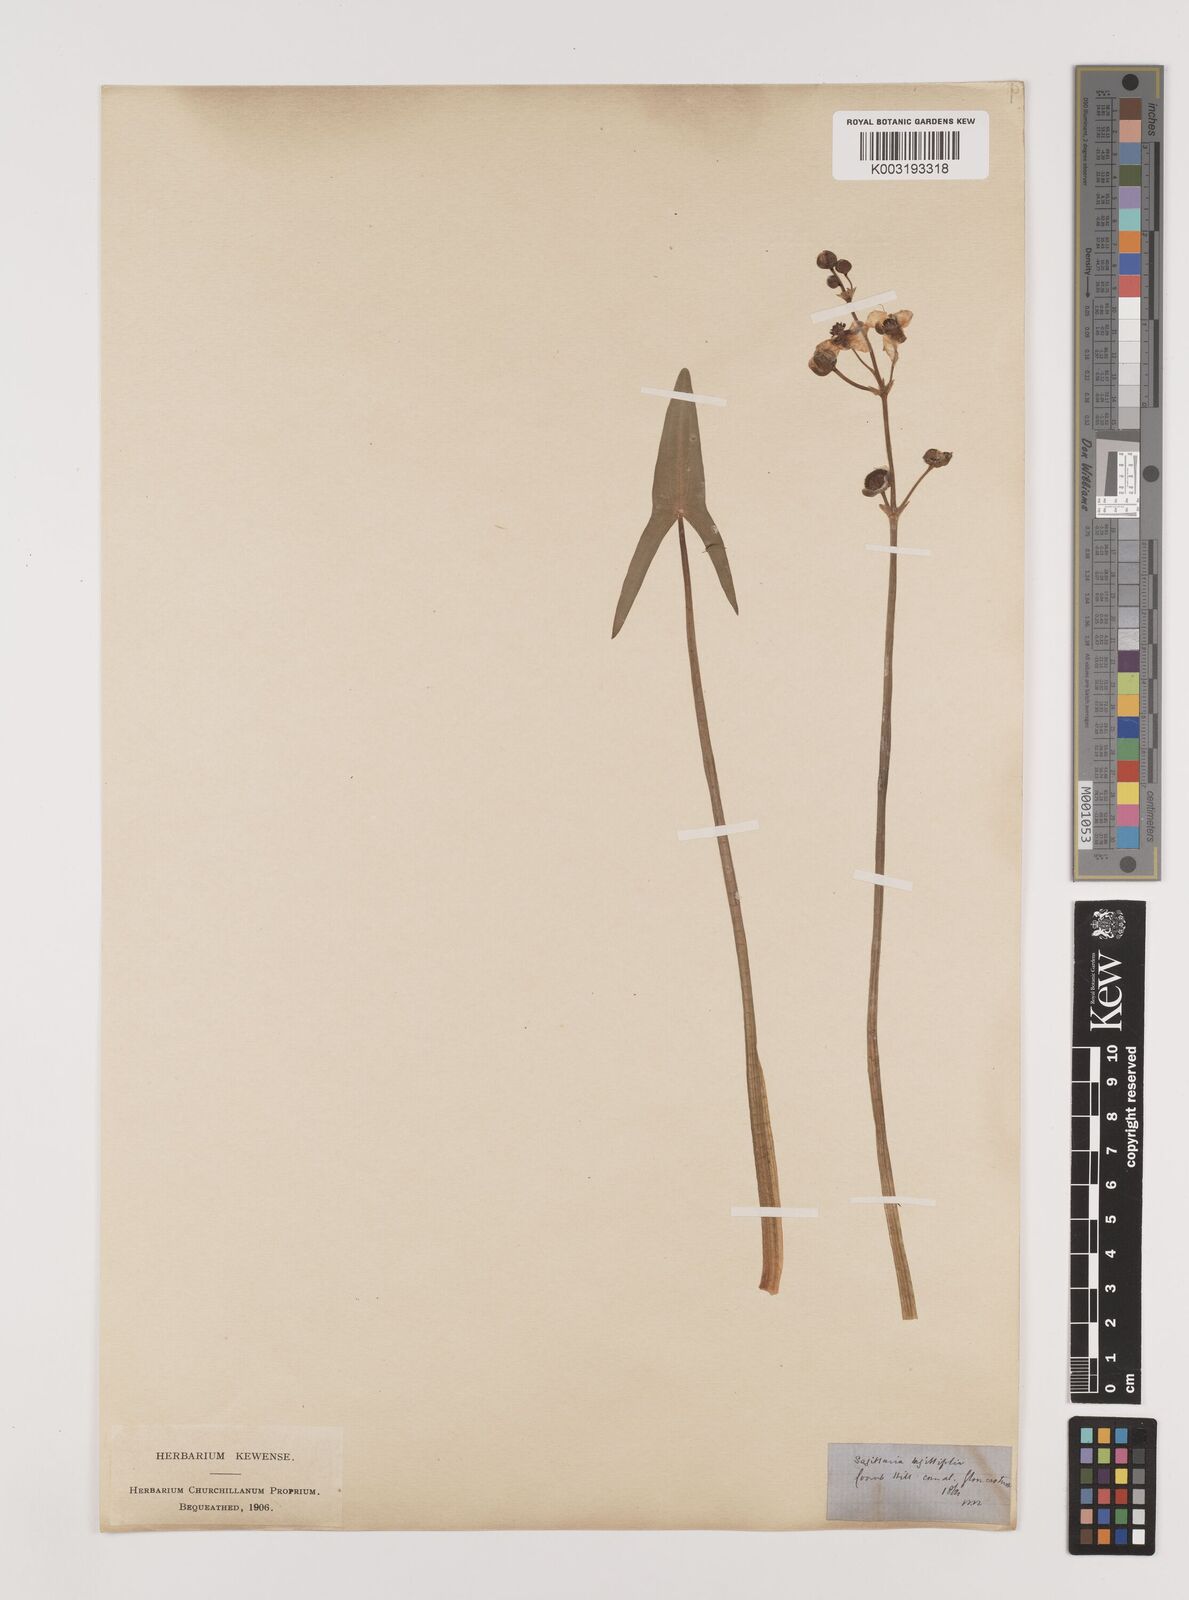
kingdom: Plantae
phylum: Tracheophyta
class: Liliopsida
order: Alismatales
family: Alismataceae
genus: Sagittaria
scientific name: Sagittaria sagittifolia
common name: Arrowhead
